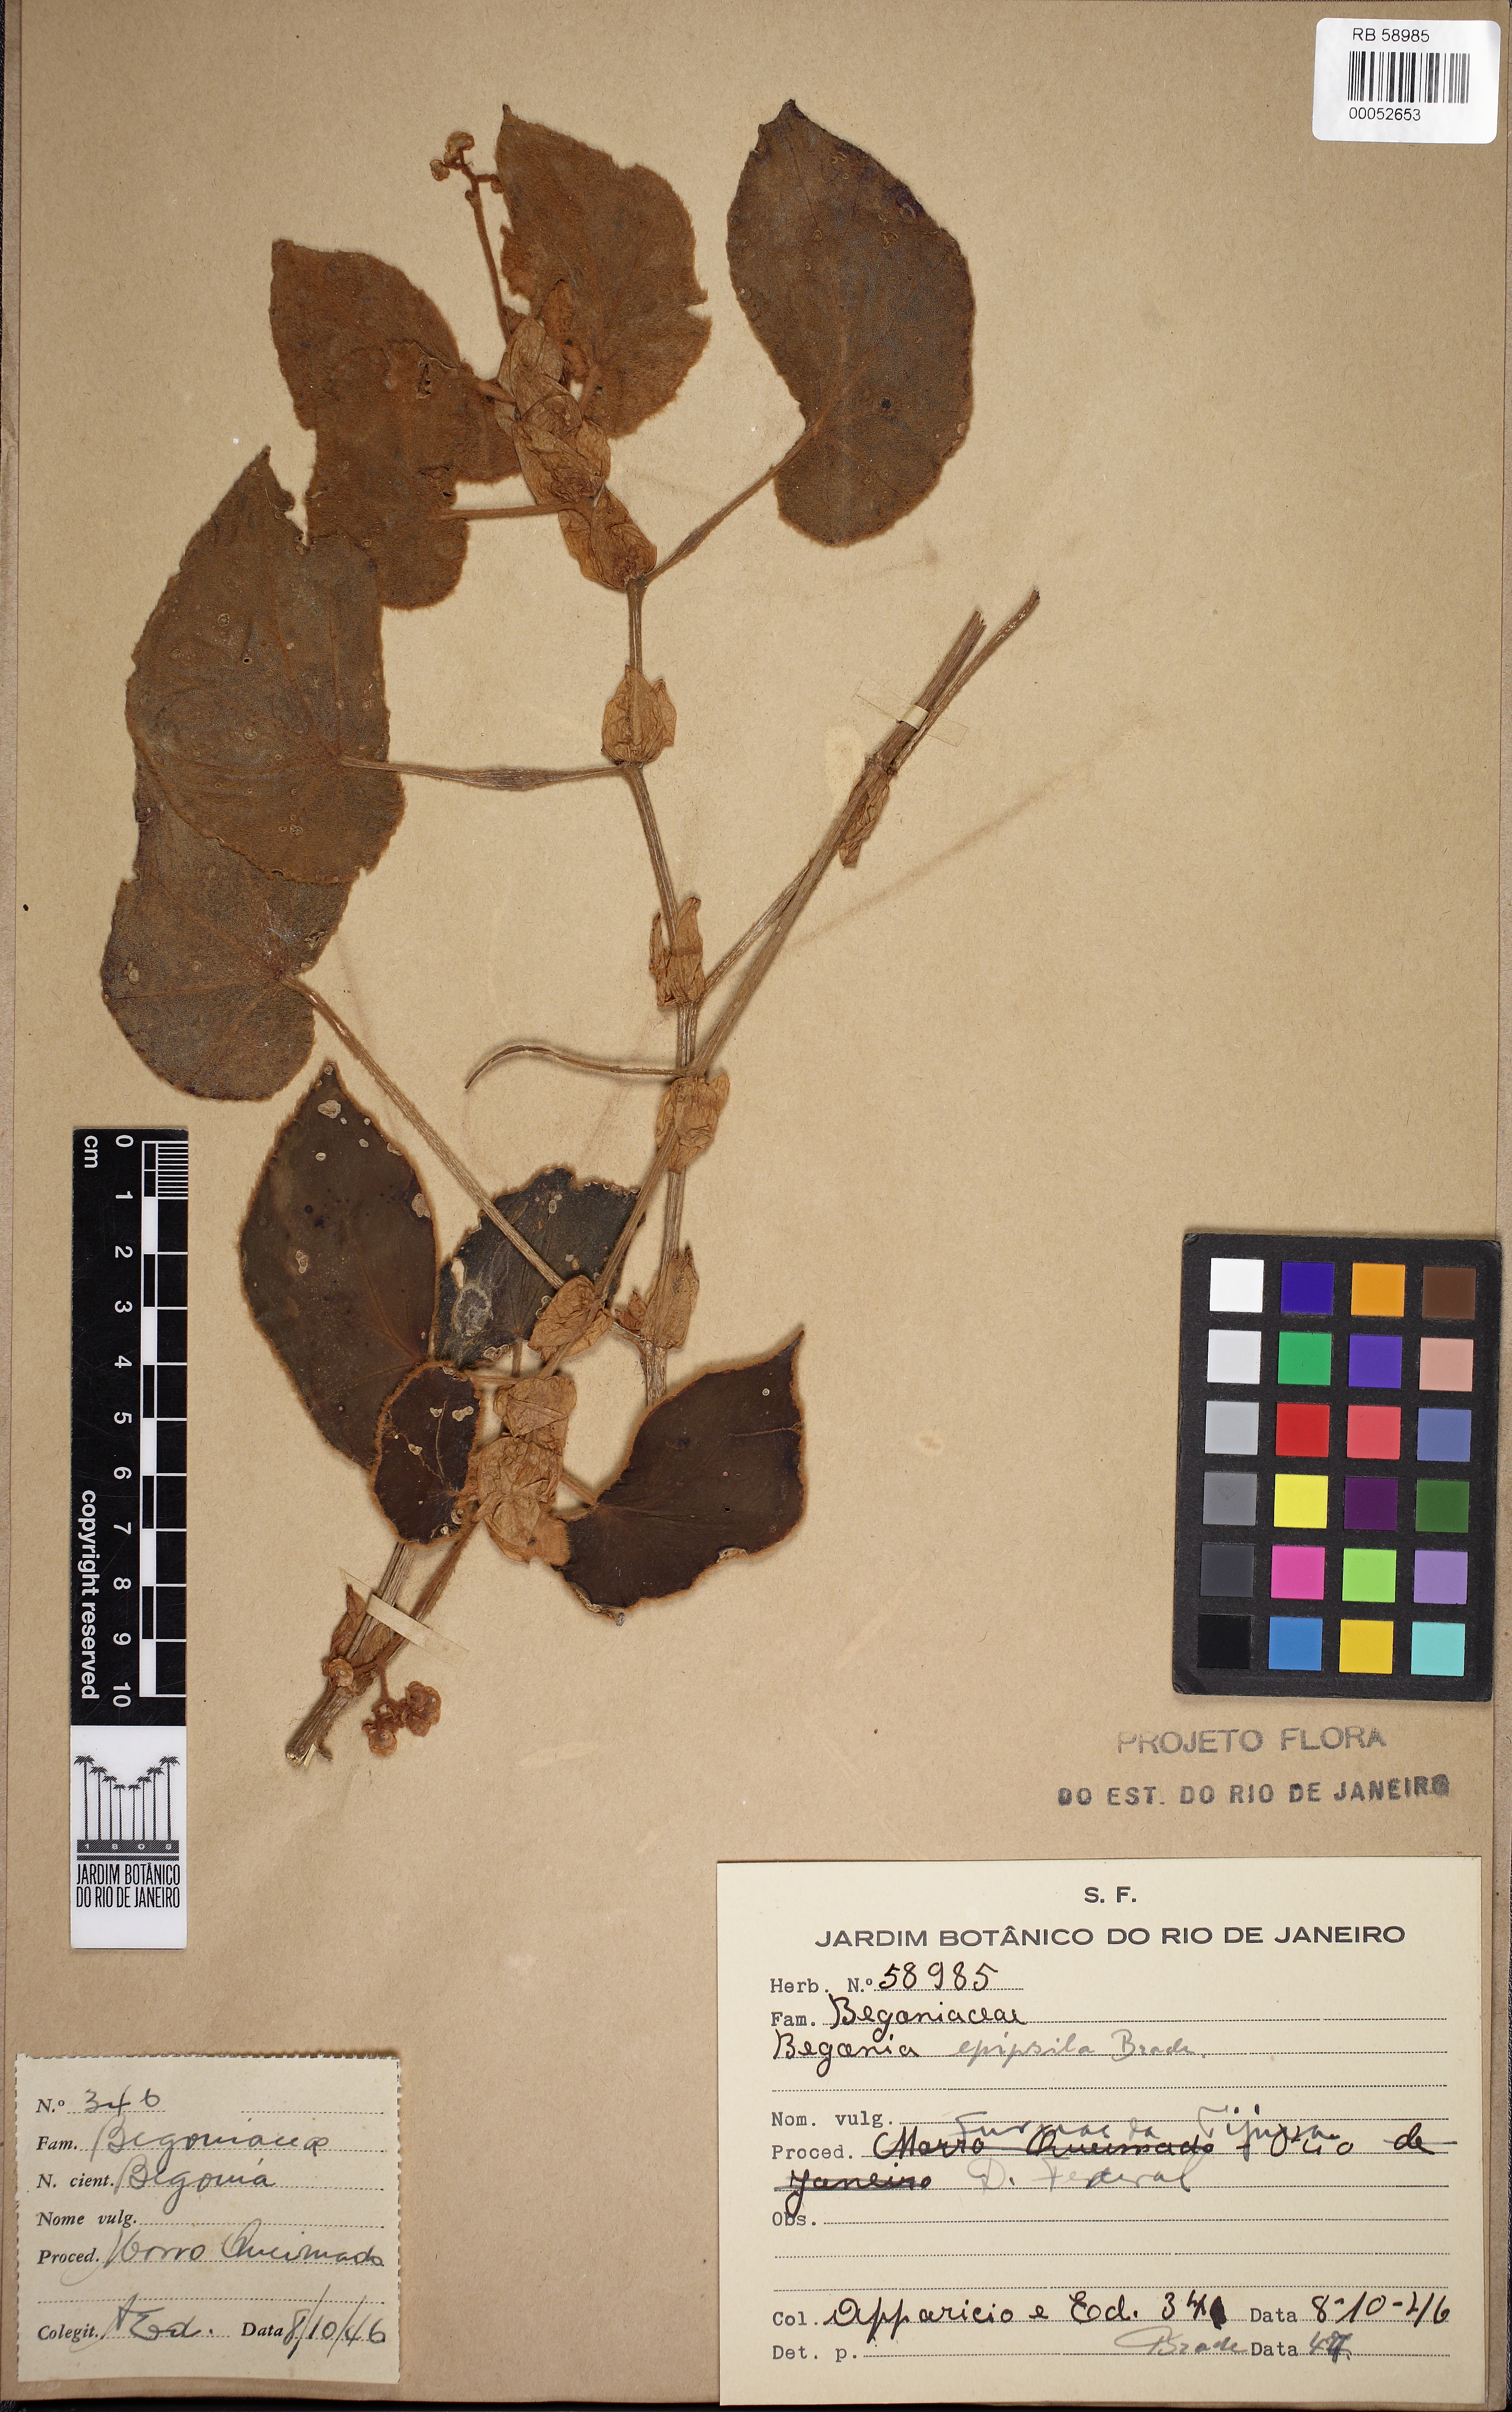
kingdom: Plantae
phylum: Tracheophyta
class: Magnoliopsida
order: Cucurbitales
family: Begoniaceae
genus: Begonia
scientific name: Begonia epipsila
